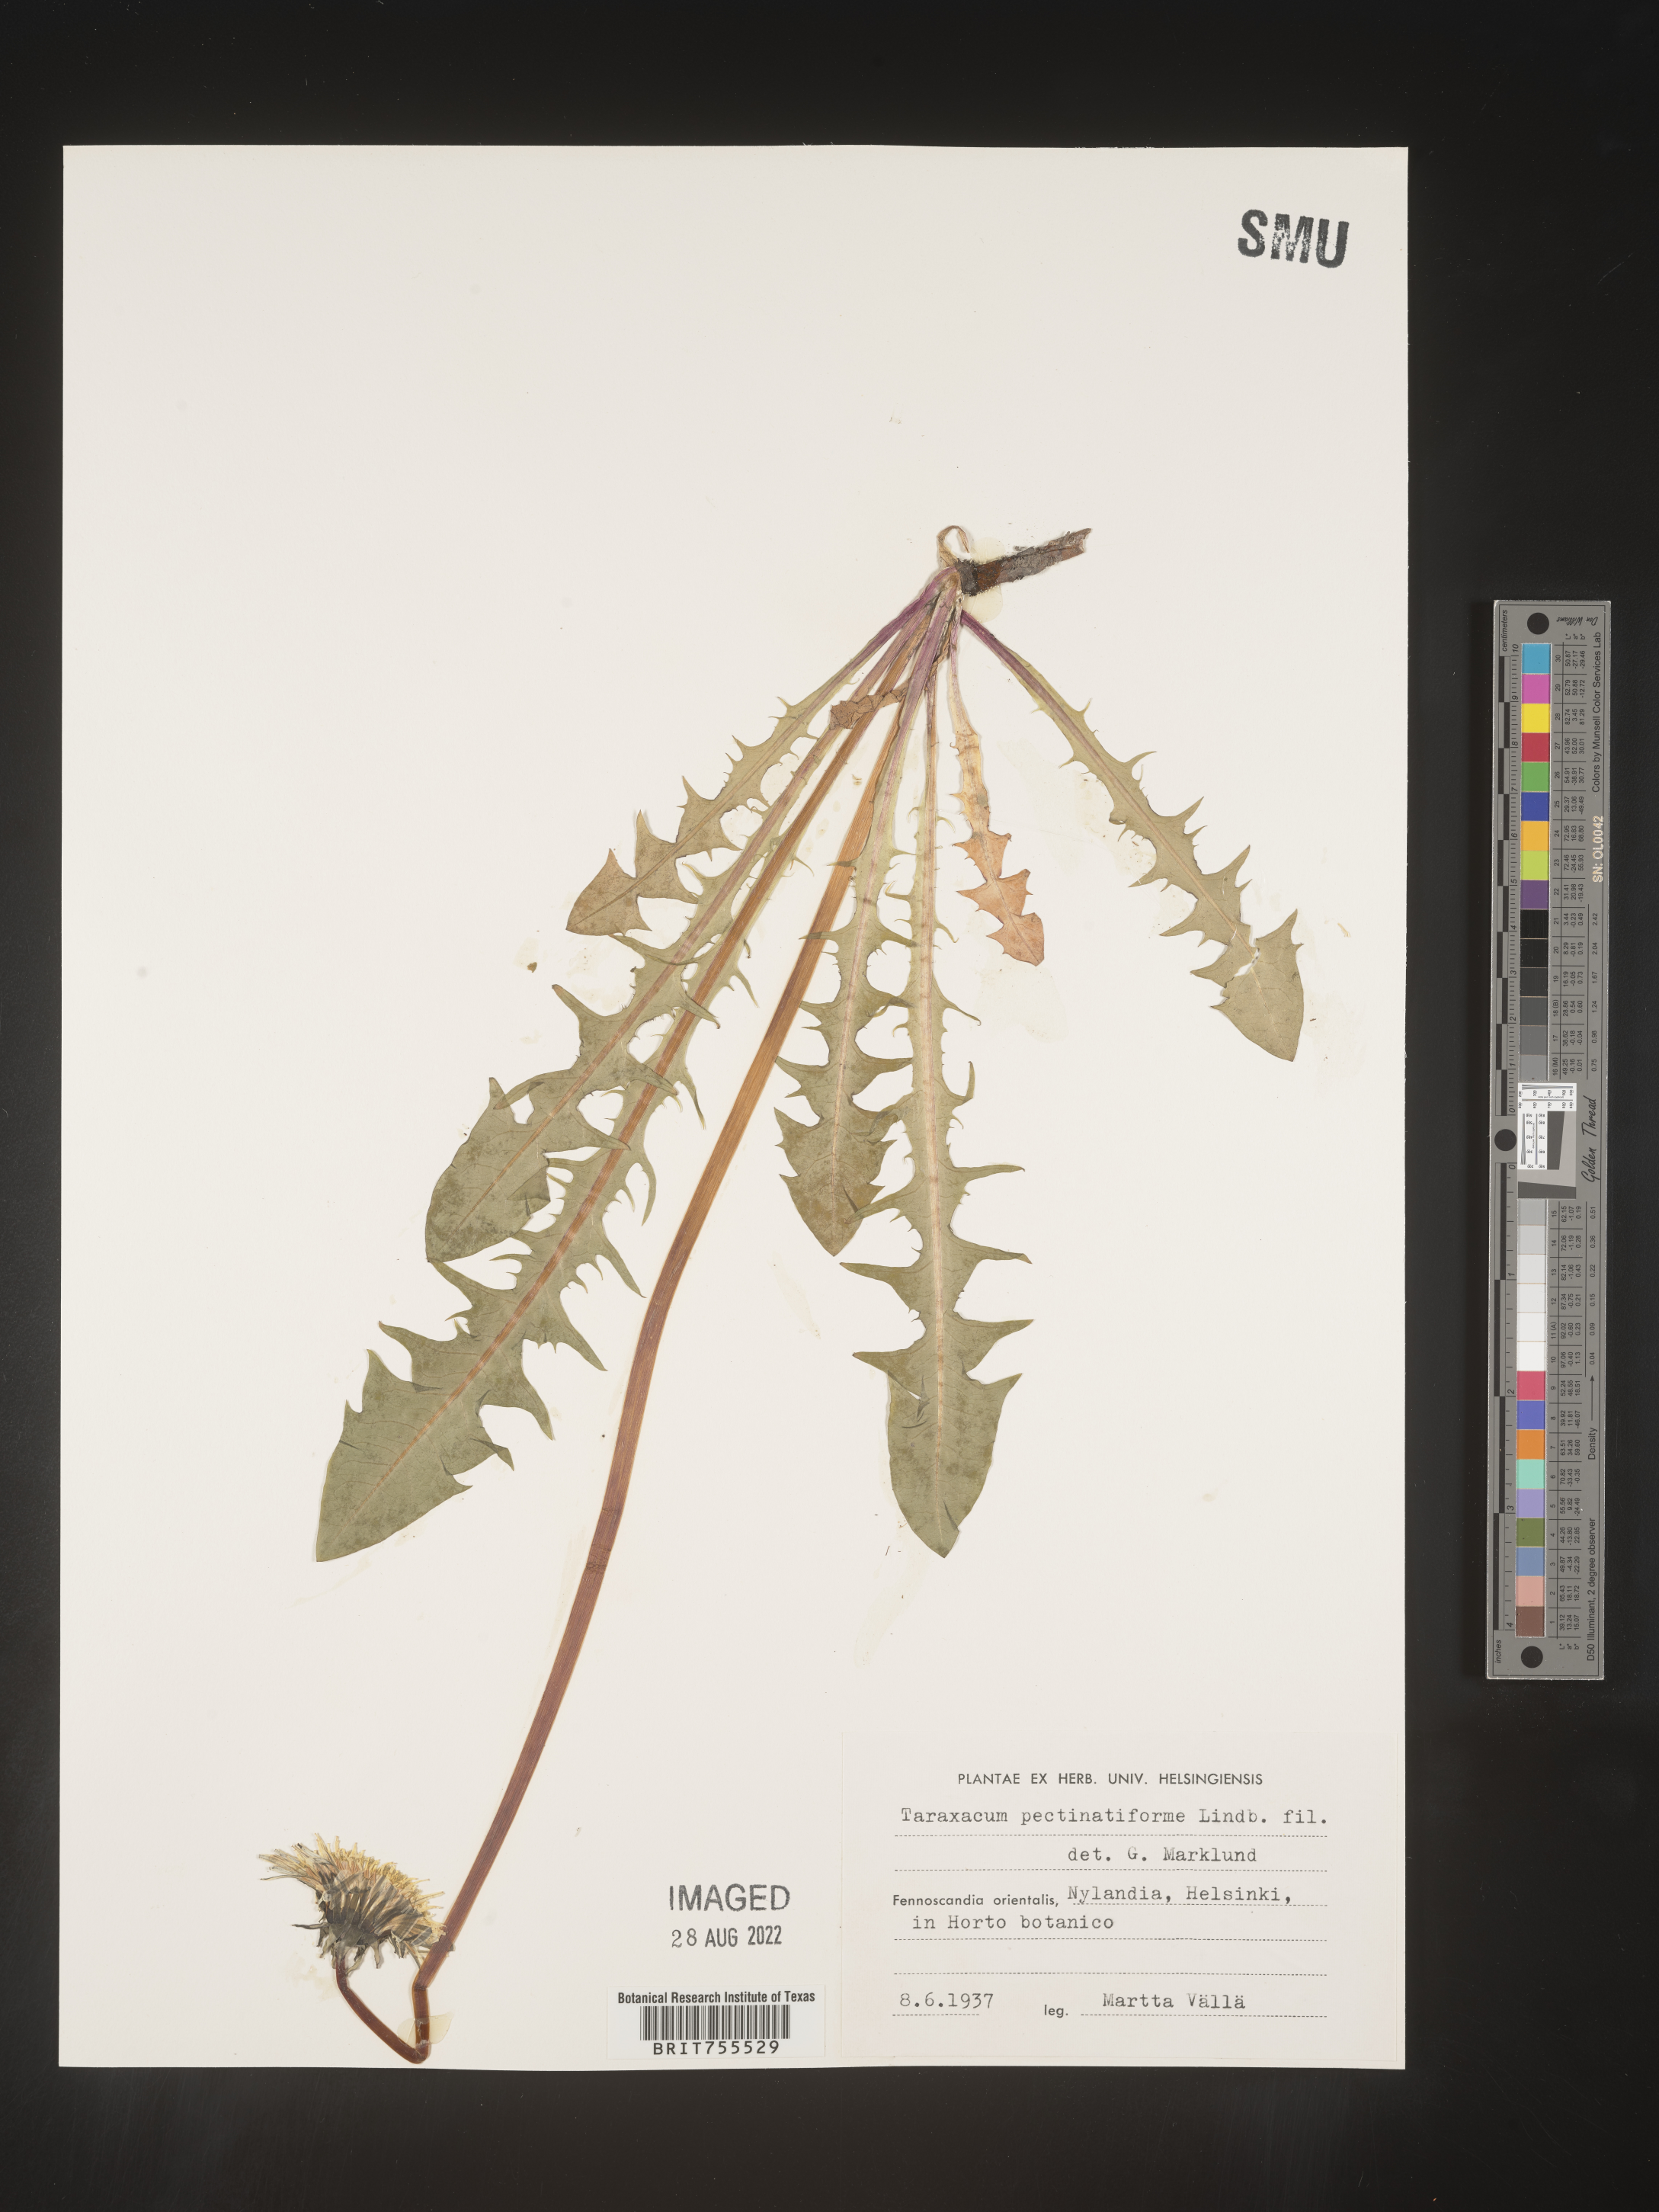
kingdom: Plantae
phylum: Tracheophyta
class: Magnoliopsida
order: Asterales
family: Asteraceae
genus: Taraxacum
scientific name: Taraxacum
